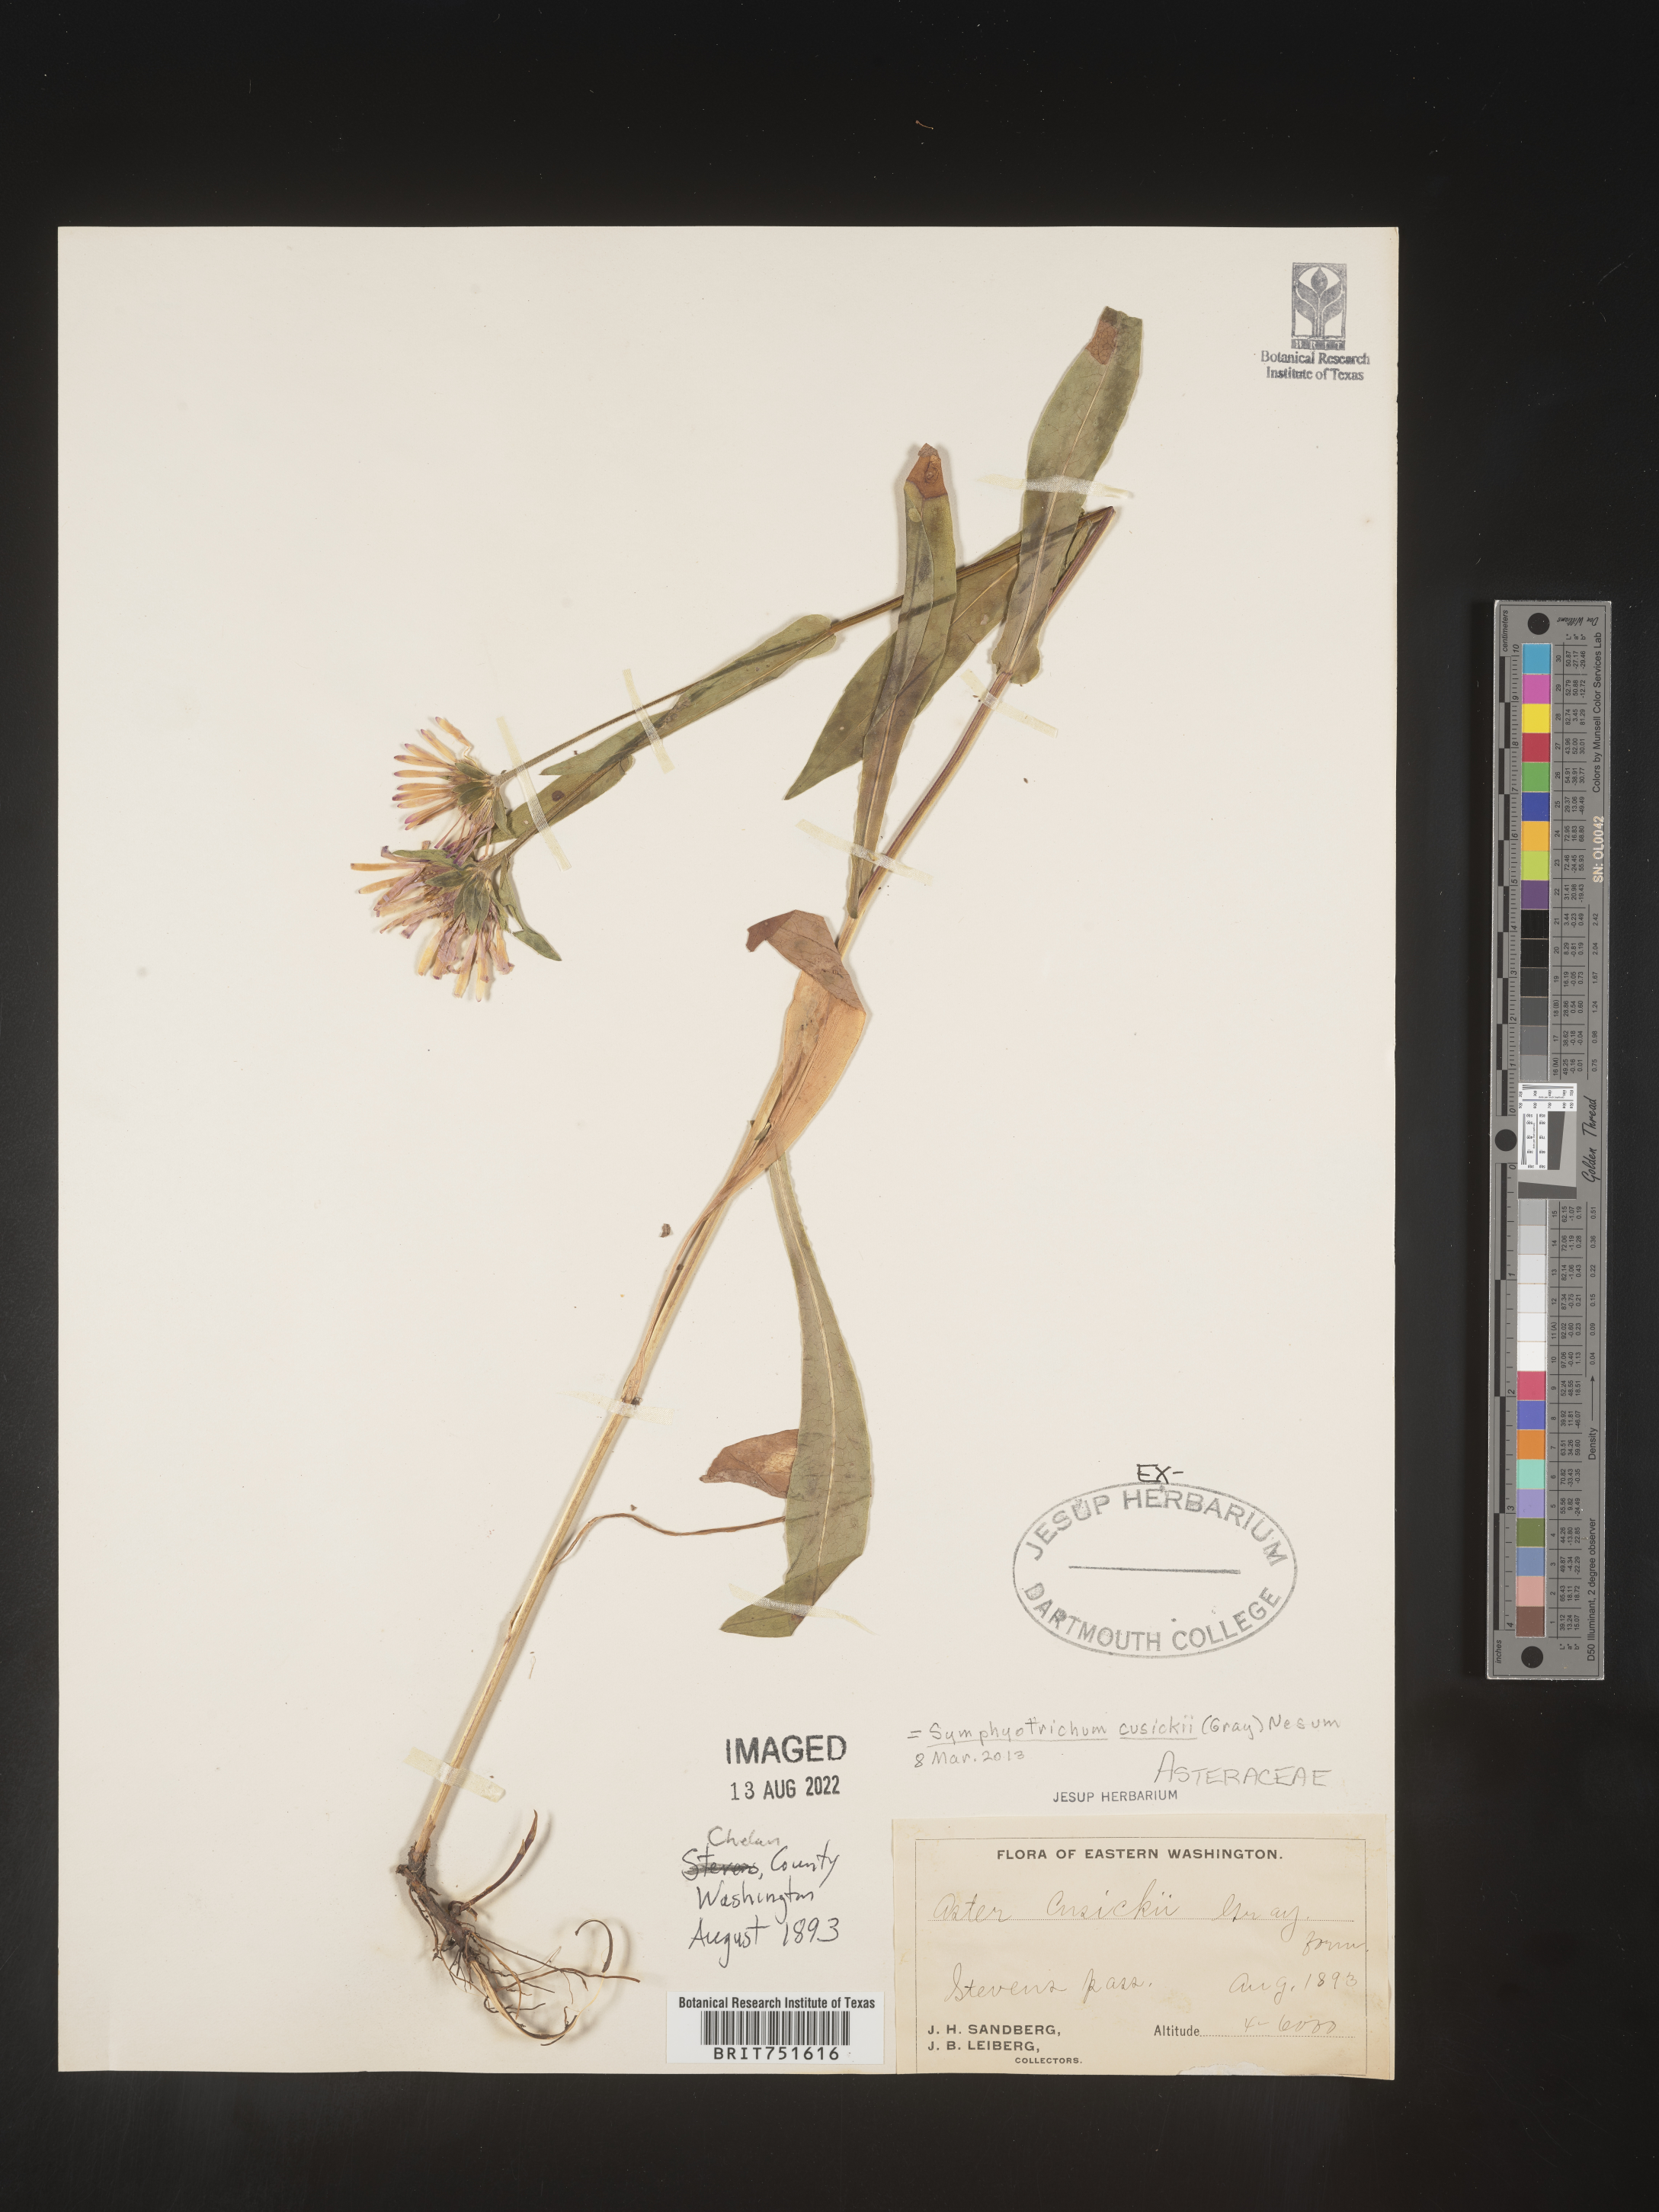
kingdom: Plantae
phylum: Tracheophyta
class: Magnoliopsida
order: Asterales
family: Asteraceae
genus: Symphyotrichum
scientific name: Symphyotrichum foliaceum
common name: Leafy aster
